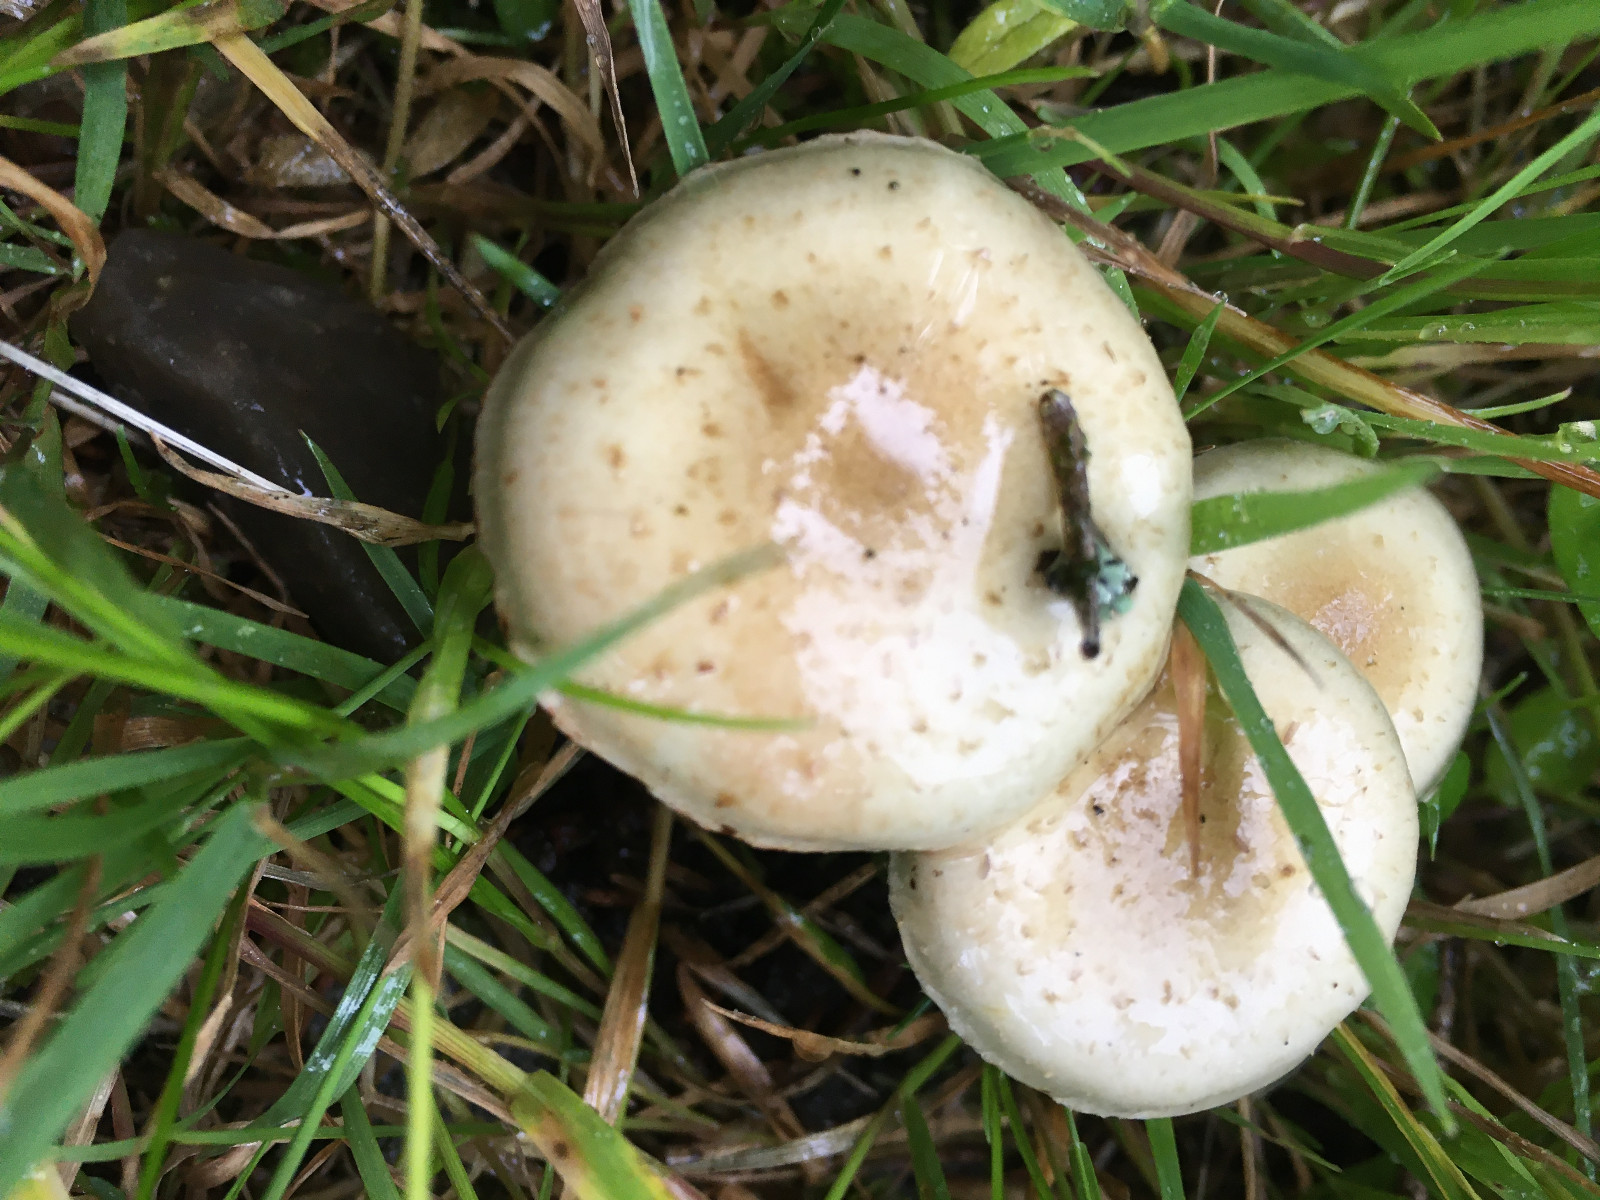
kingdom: Fungi
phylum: Basidiomycota
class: Agaricomycetes
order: Agaricales
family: Strophariaceae
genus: Pholiota
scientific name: Pholiota gummosa
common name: grøngul skælhat
